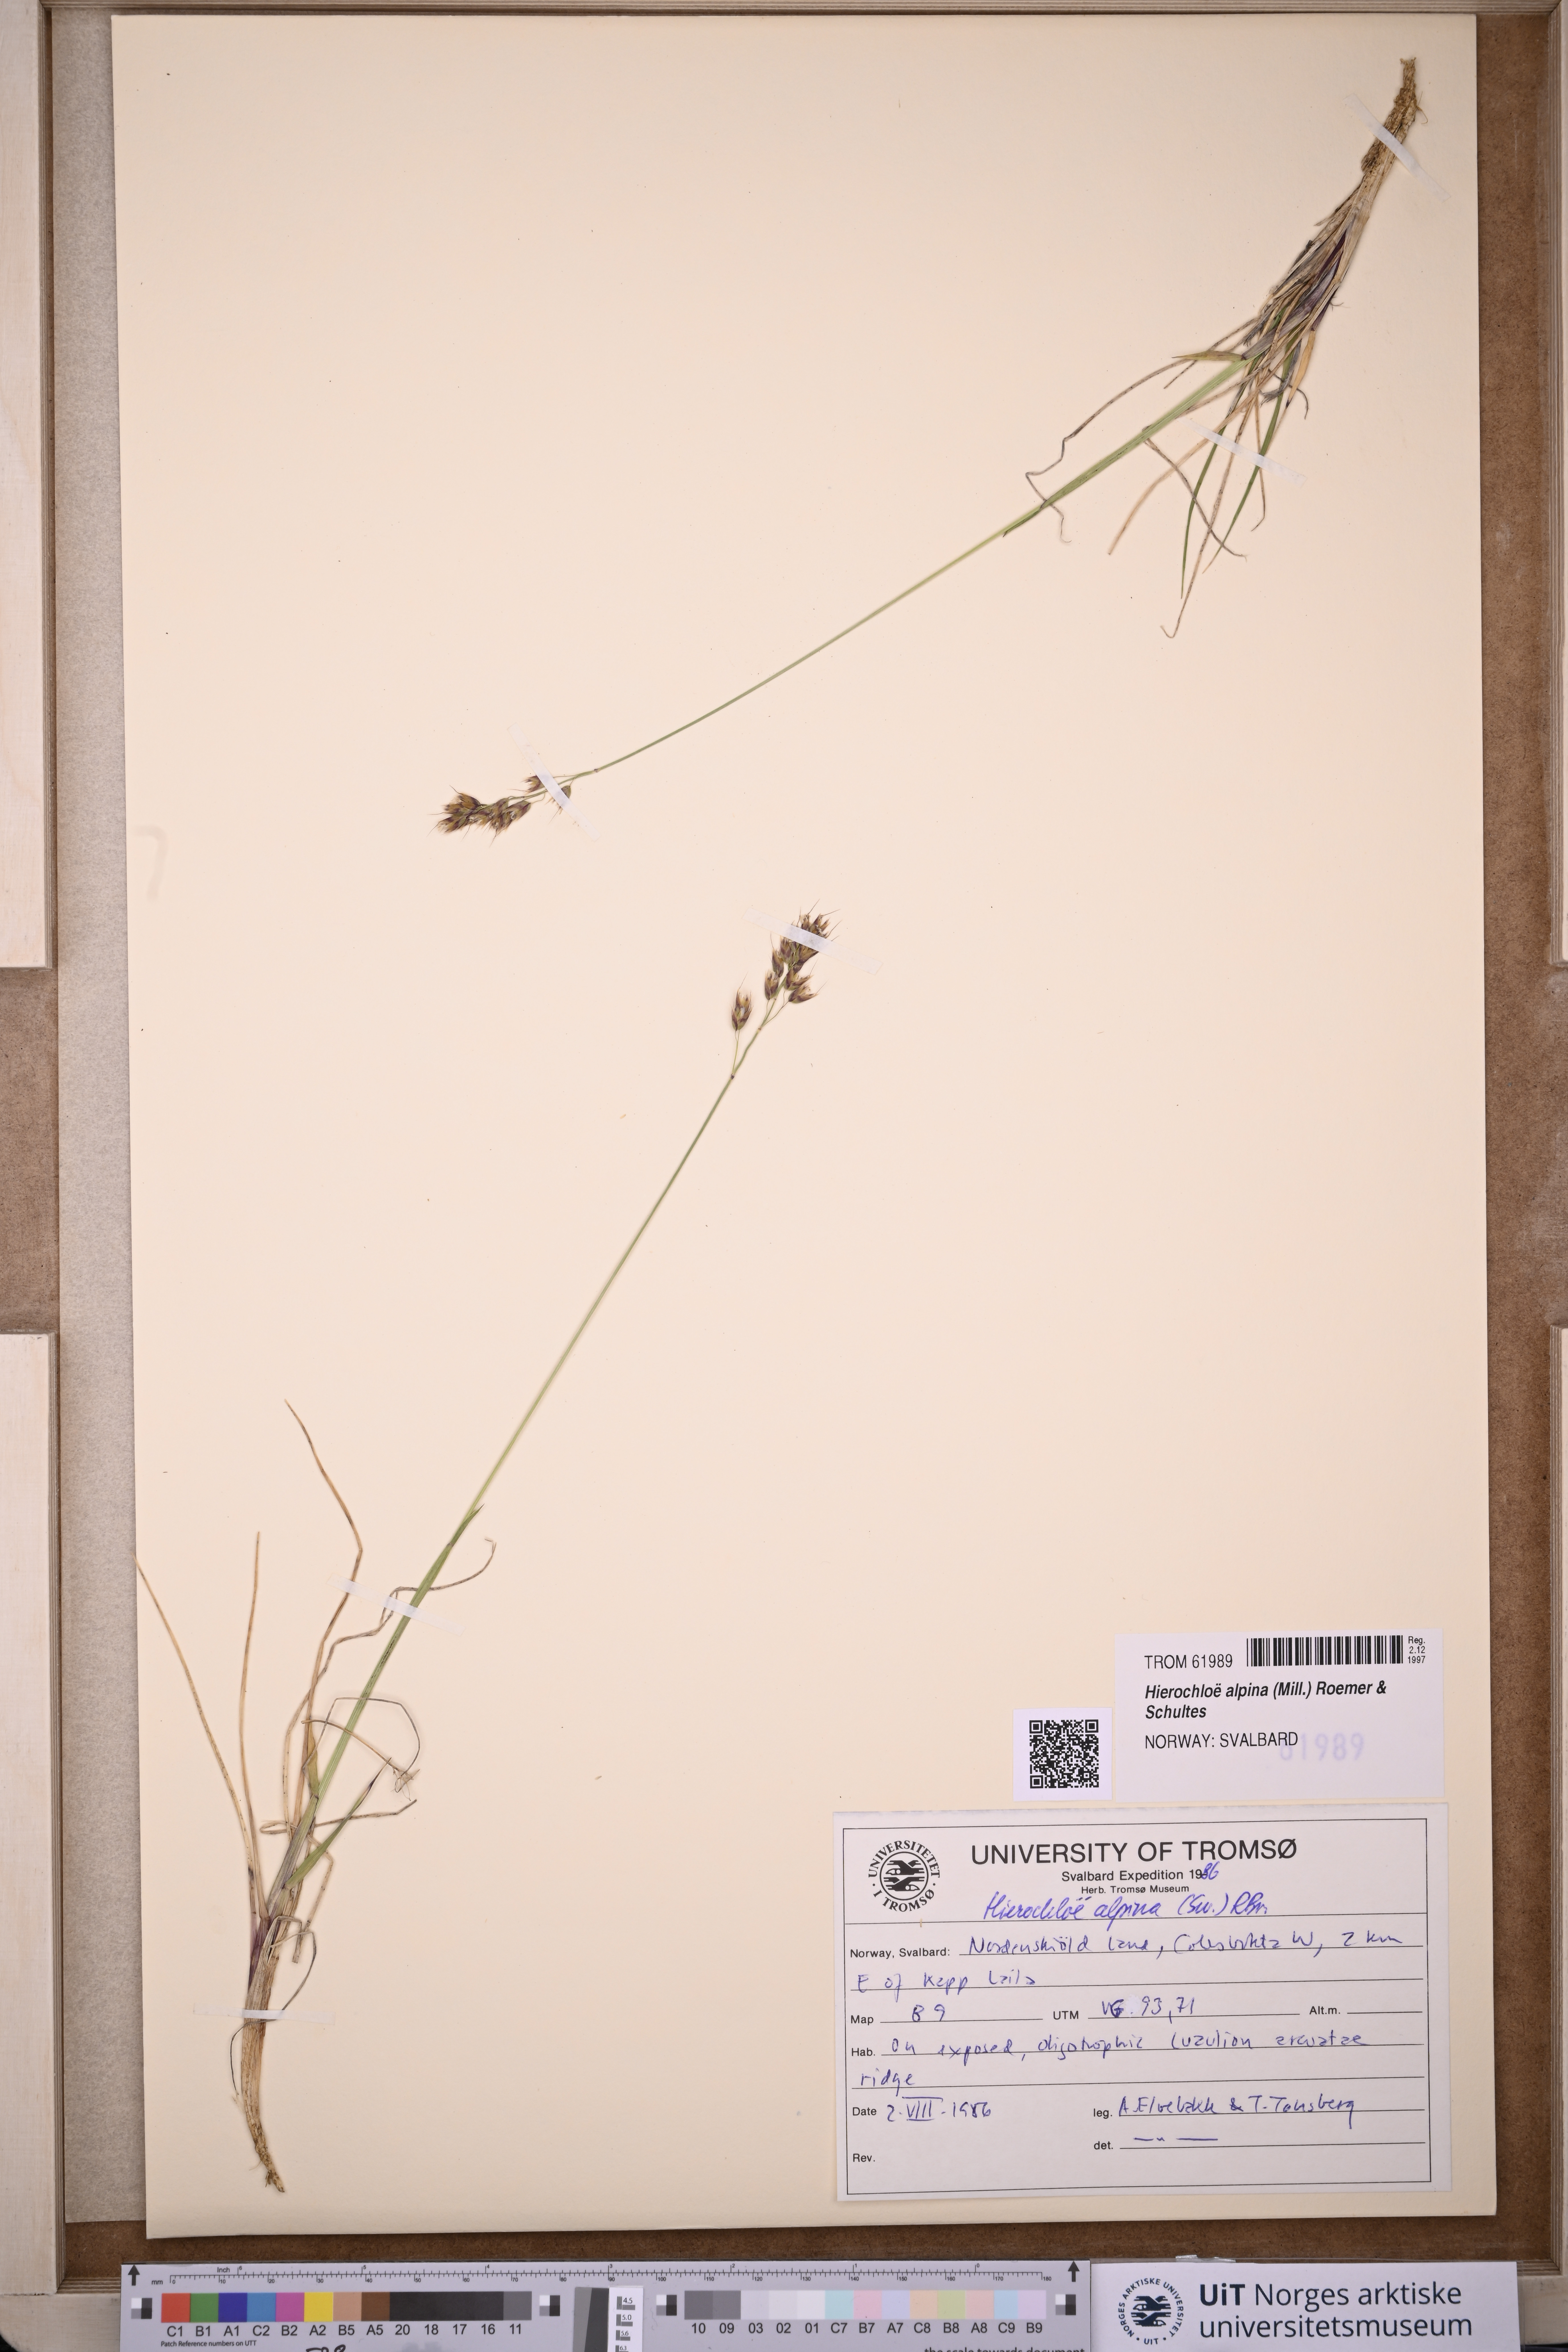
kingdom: Plantae
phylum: Tracheophyta
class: Liliopsida
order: Poales
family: Poaceae
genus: Anthoxanthum
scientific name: Anthoxanthum monticola
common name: Alpine sweetgrass
